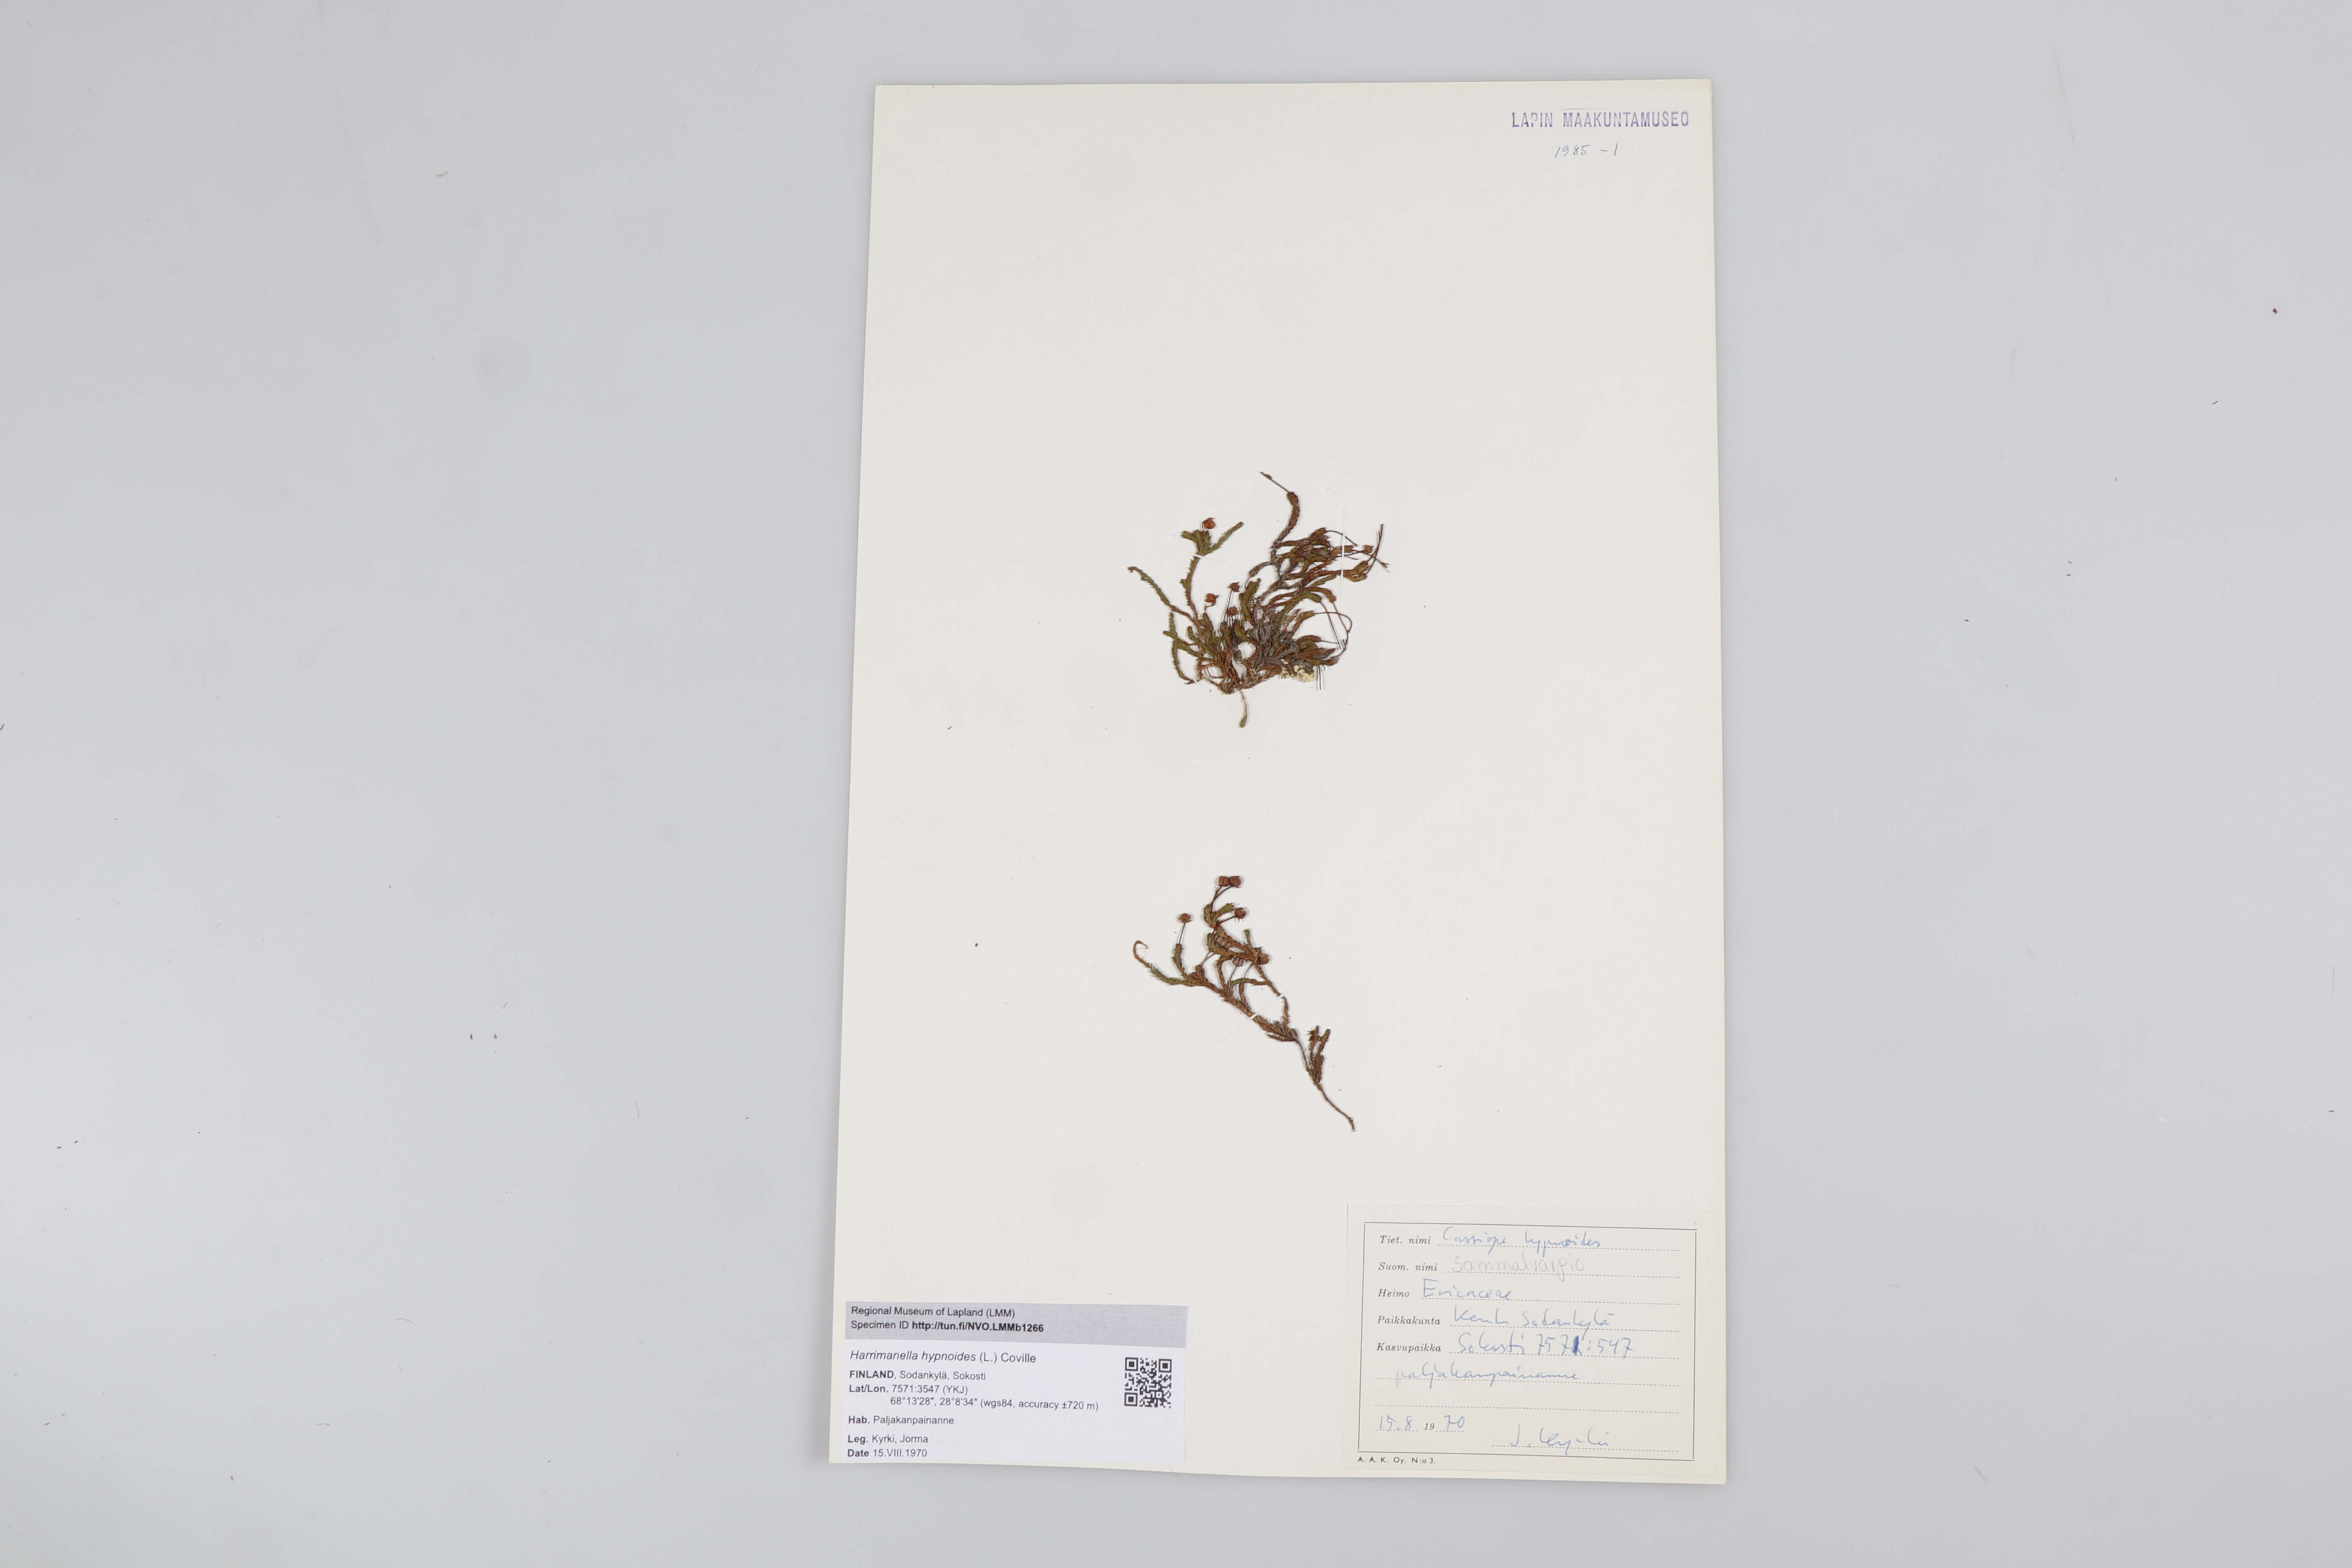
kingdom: Plantae
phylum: Tracheophyta
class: Magnoliopsida
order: Ericales
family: Ericaceae
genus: Harrimanella
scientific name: Harrimanella hypnoides
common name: Moss bell heather
